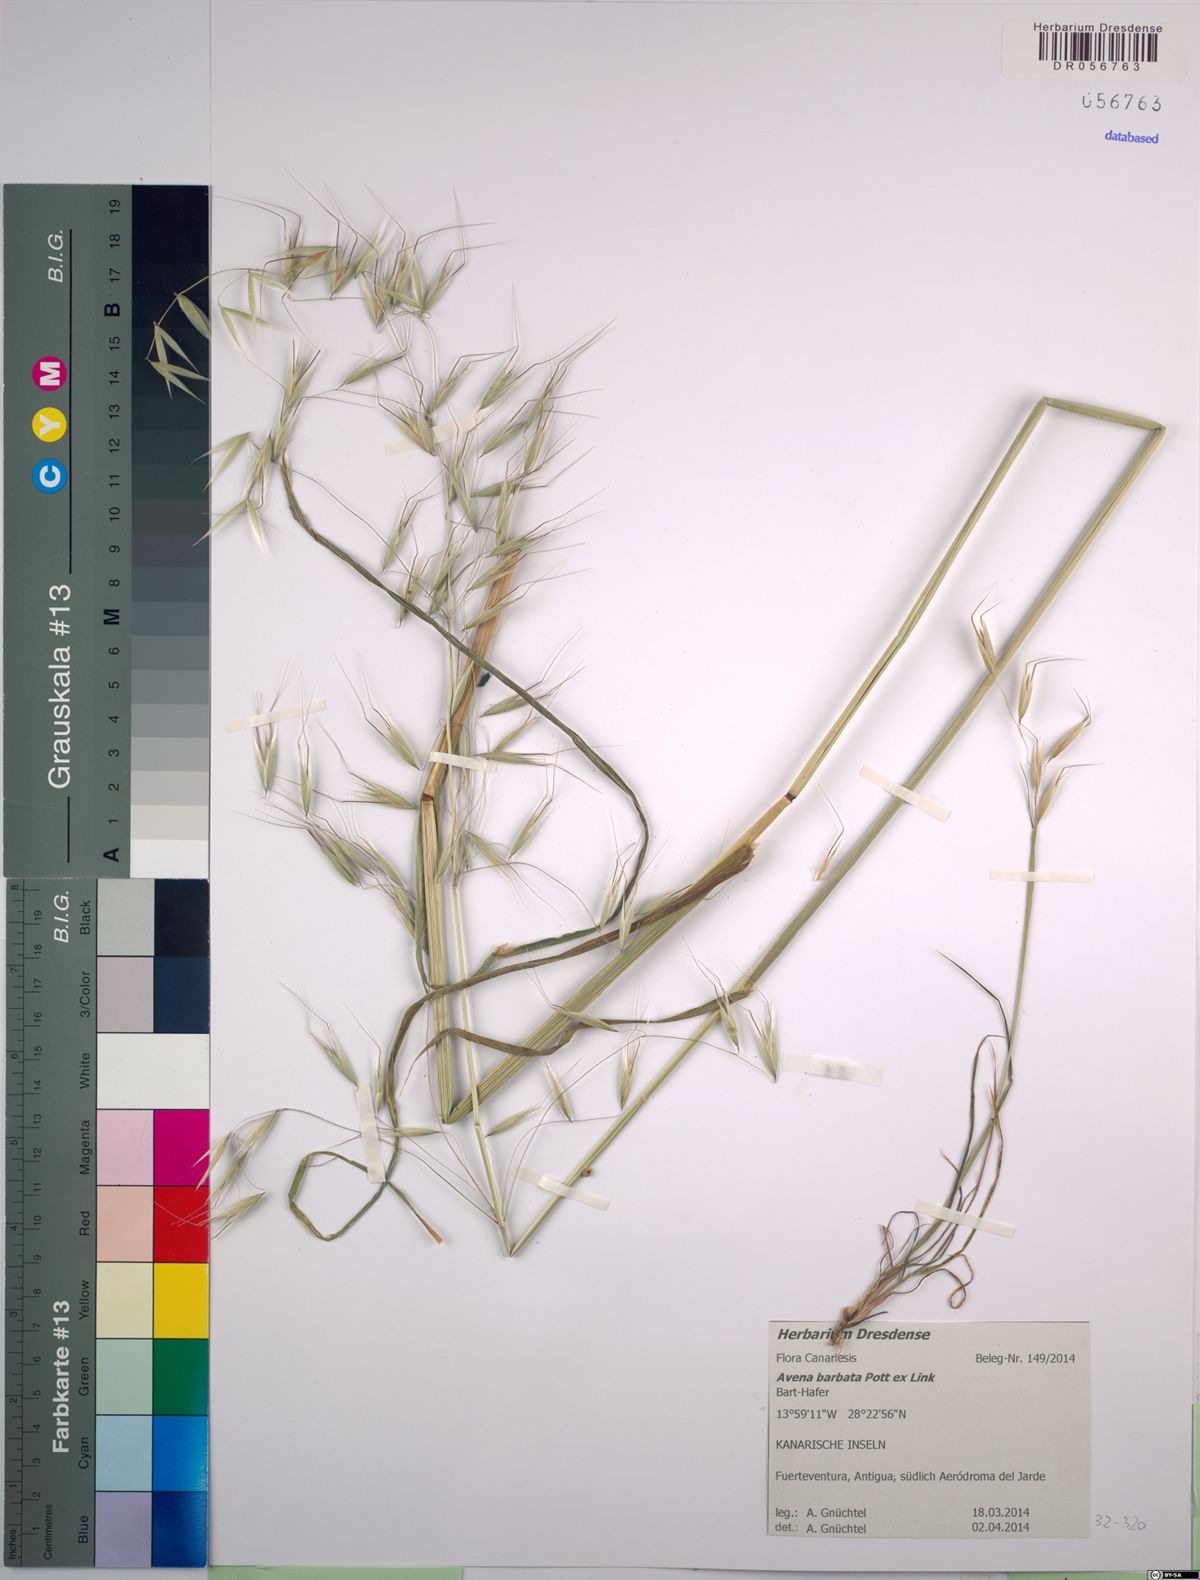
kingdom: Plantae
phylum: Tracheophyta
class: Liliopsida
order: Poales
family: Poaceae
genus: Avena
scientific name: Avena barbata
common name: Slender oat
